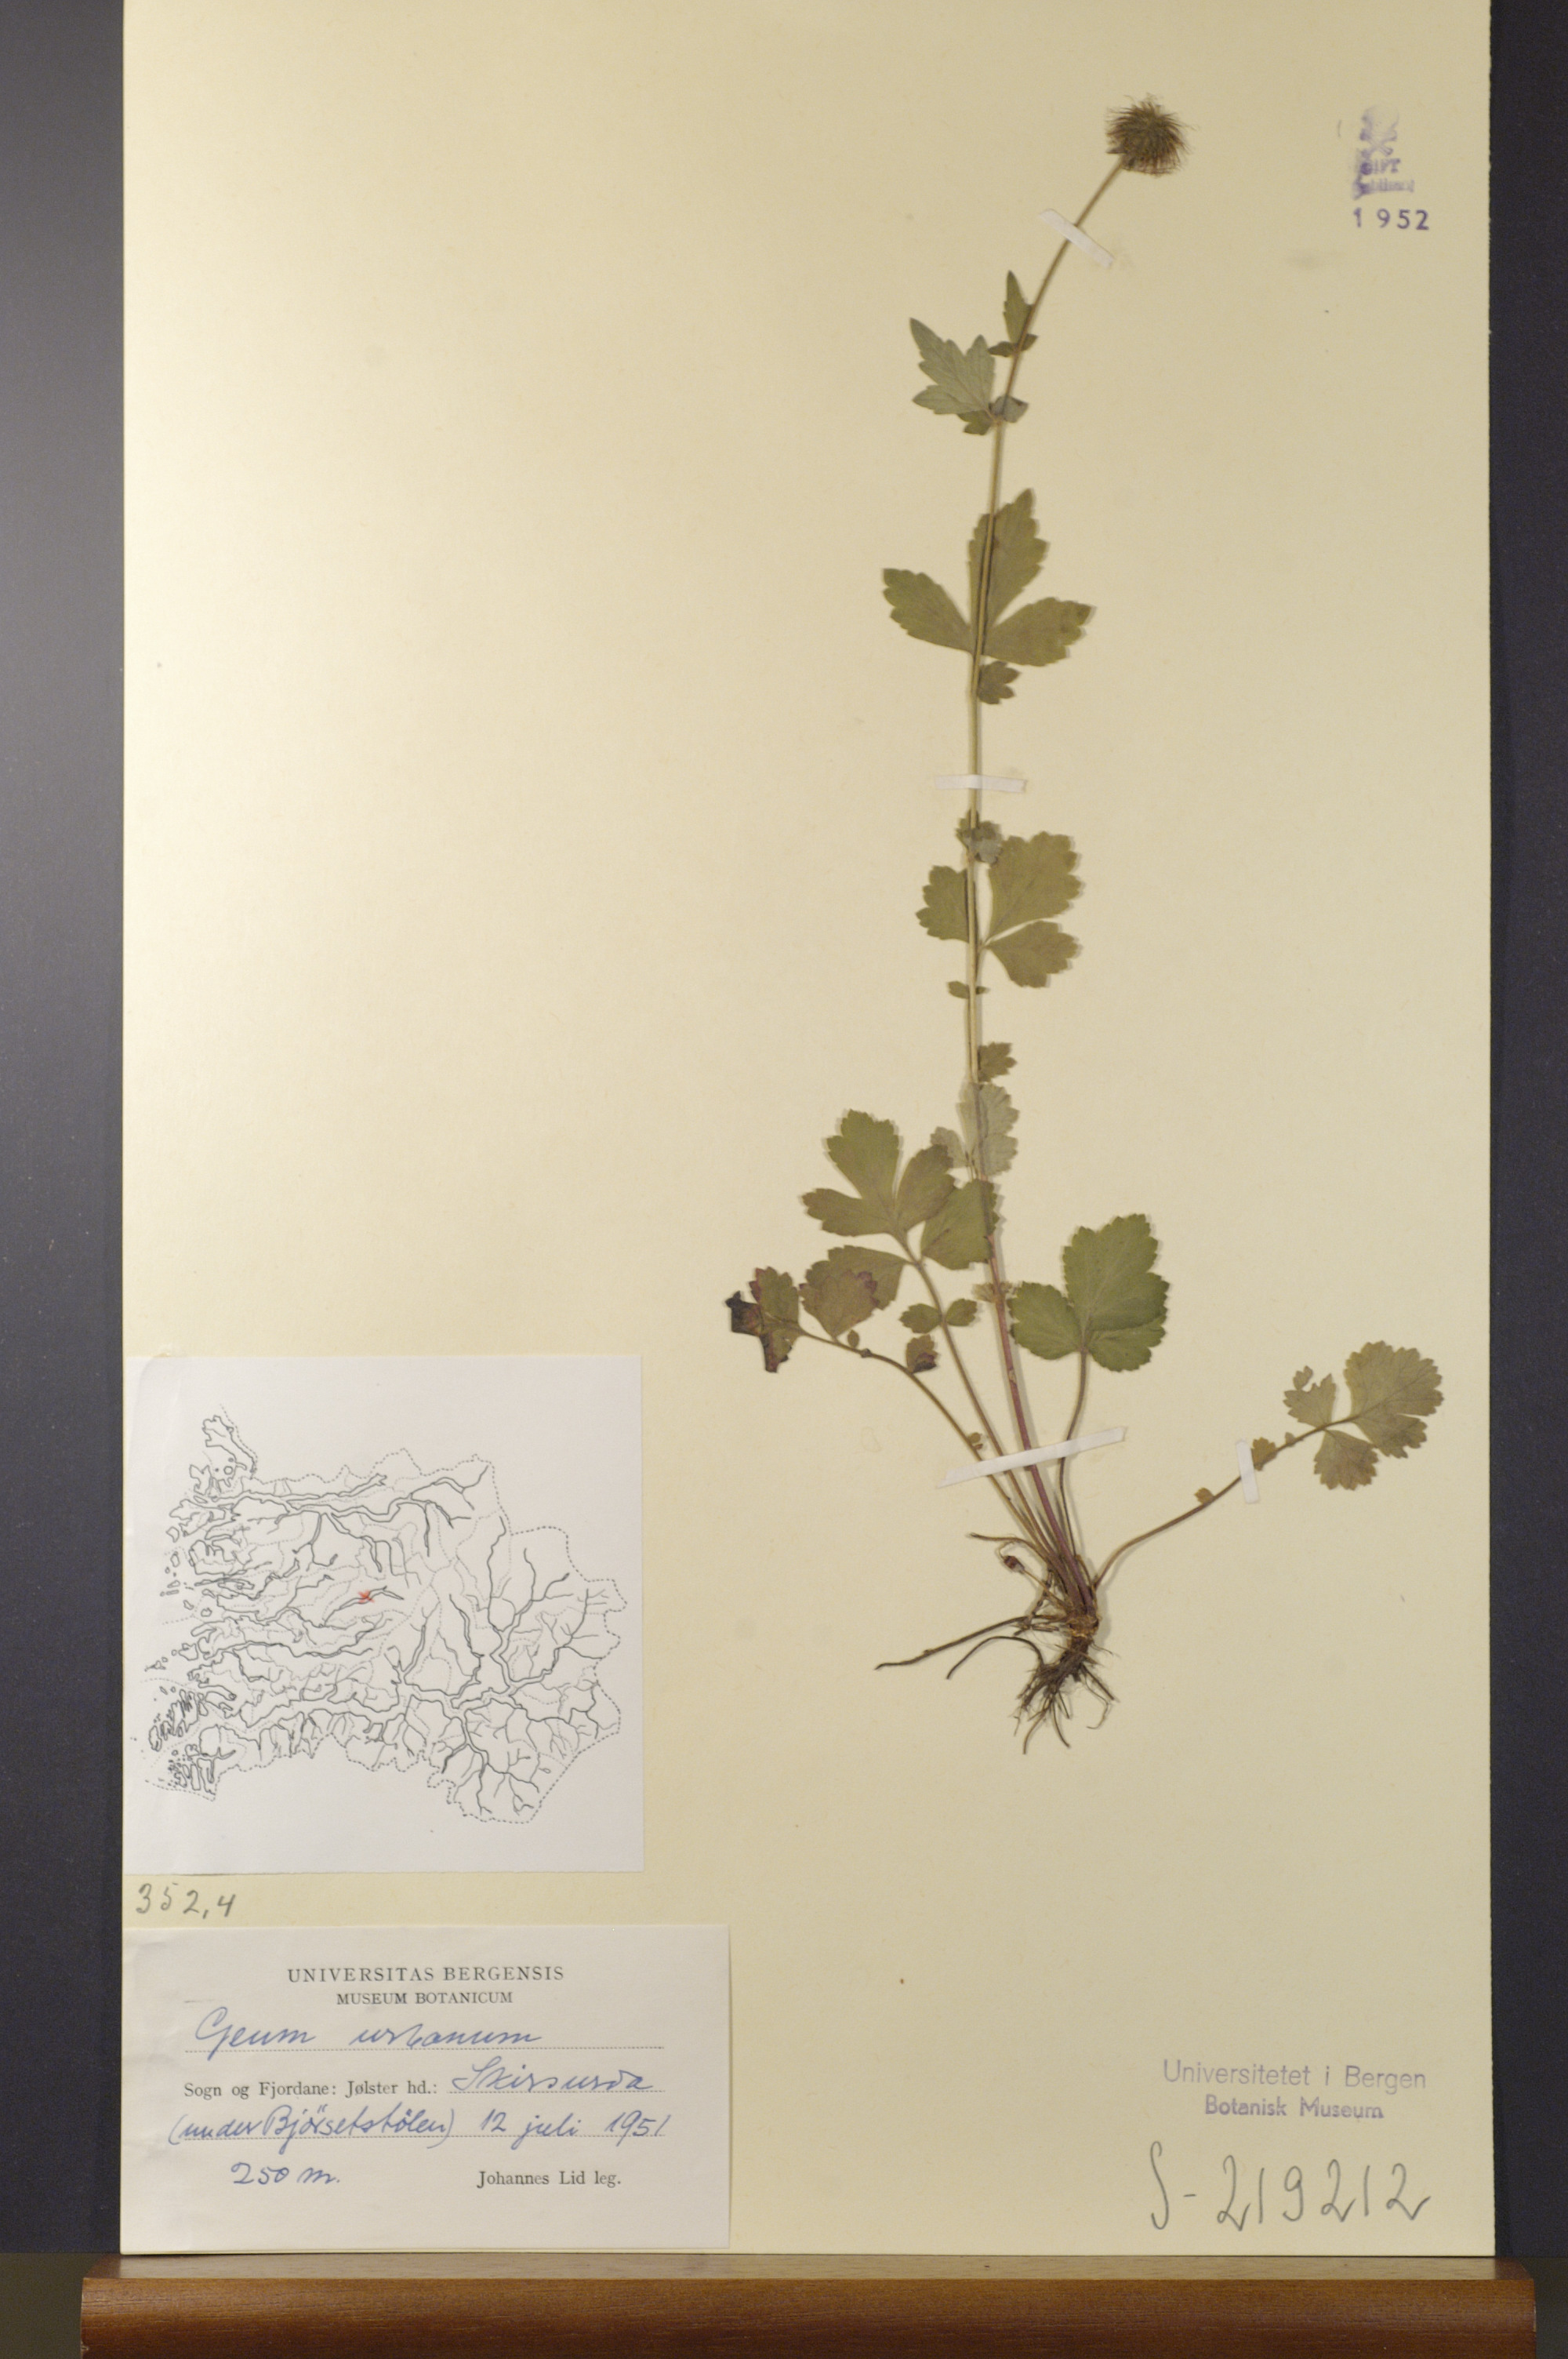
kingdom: Plantae
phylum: Tracheophyta
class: Magnoliopsida
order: Rosales
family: Rosaceae
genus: Geum
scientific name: Geum urbanum
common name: Wood avens
